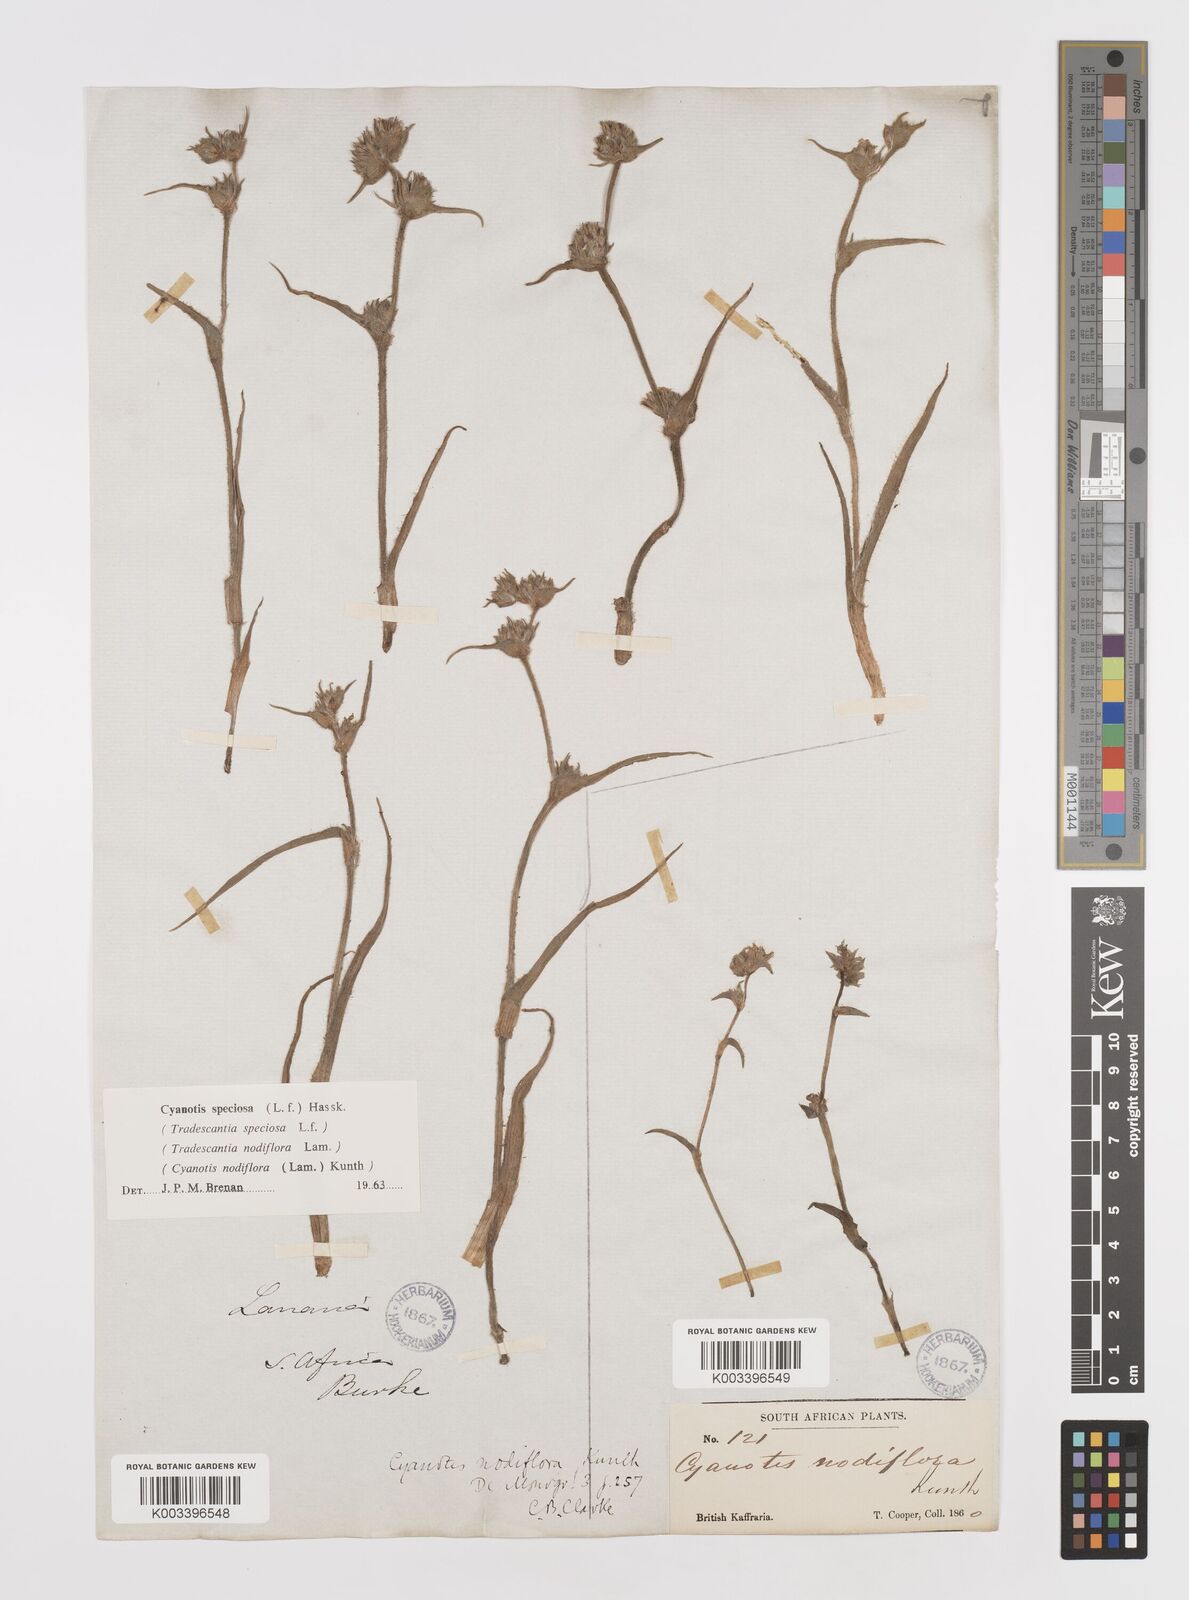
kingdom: Plantae
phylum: Tracheophyta
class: Liliopsida
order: Commelinales
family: Commelinaceae
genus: Cyanotis
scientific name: Cyanotis speciosa
